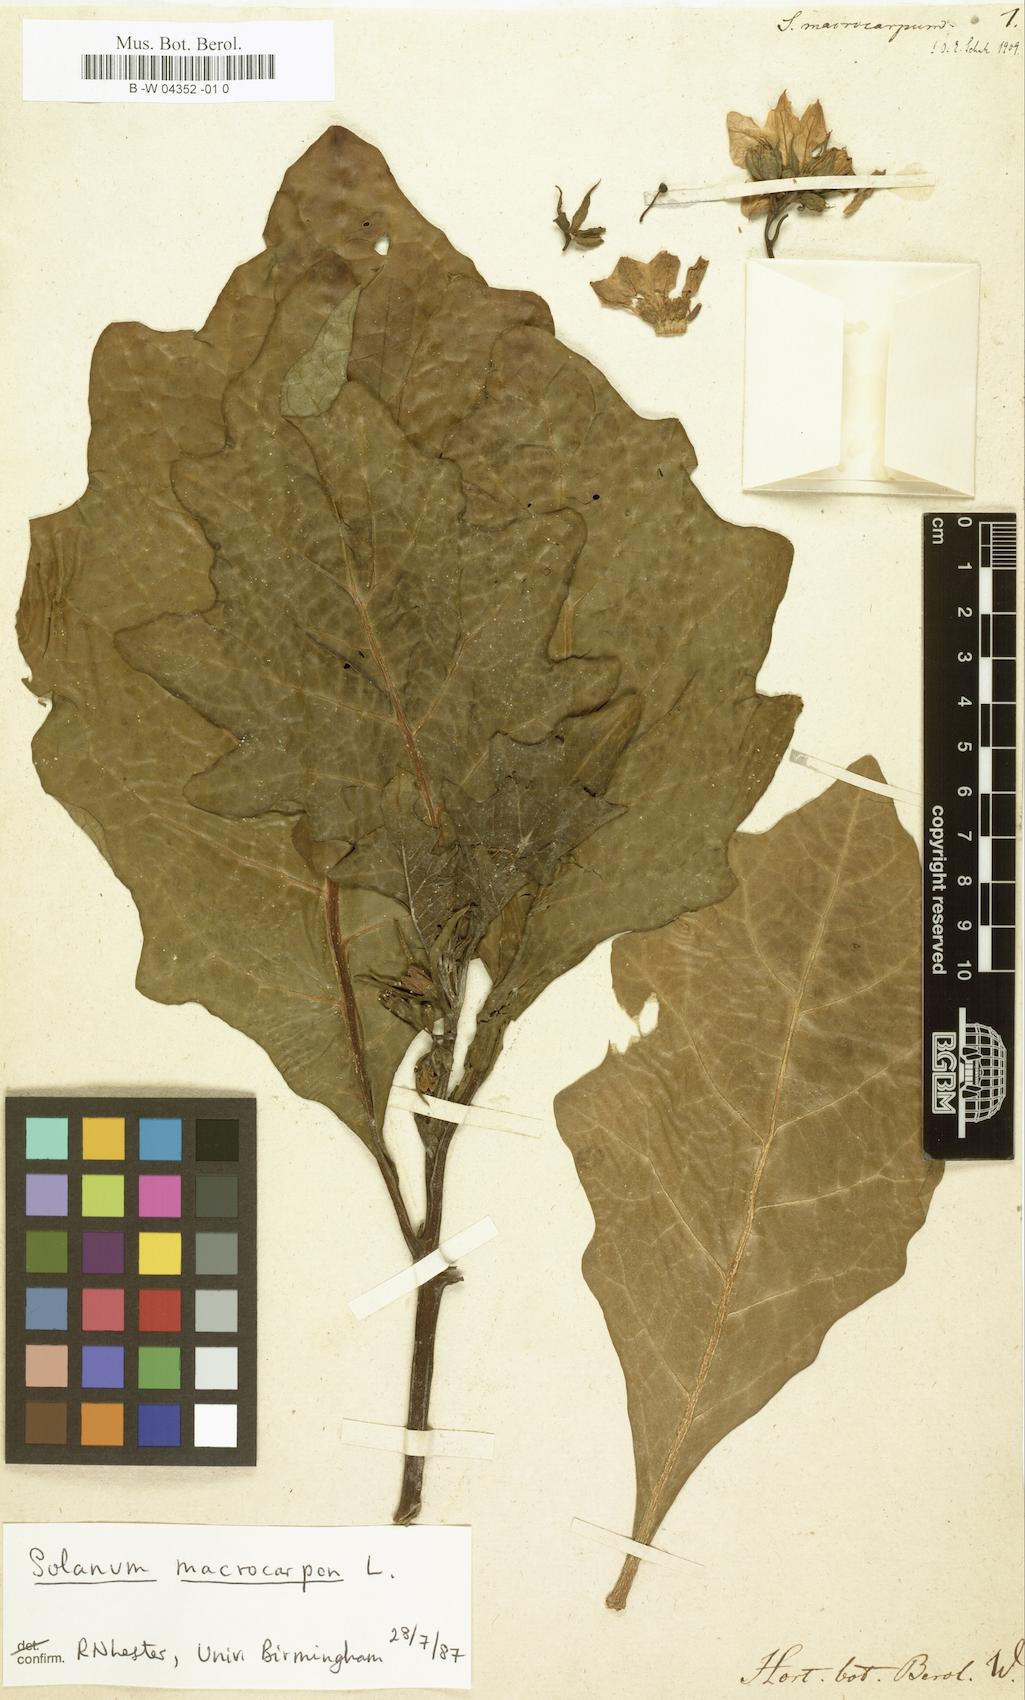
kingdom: Plantae
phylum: Tracheophyta
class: Magnoliopsida
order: Solanales
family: Solanaceae
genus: Solanum
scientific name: Solanum
